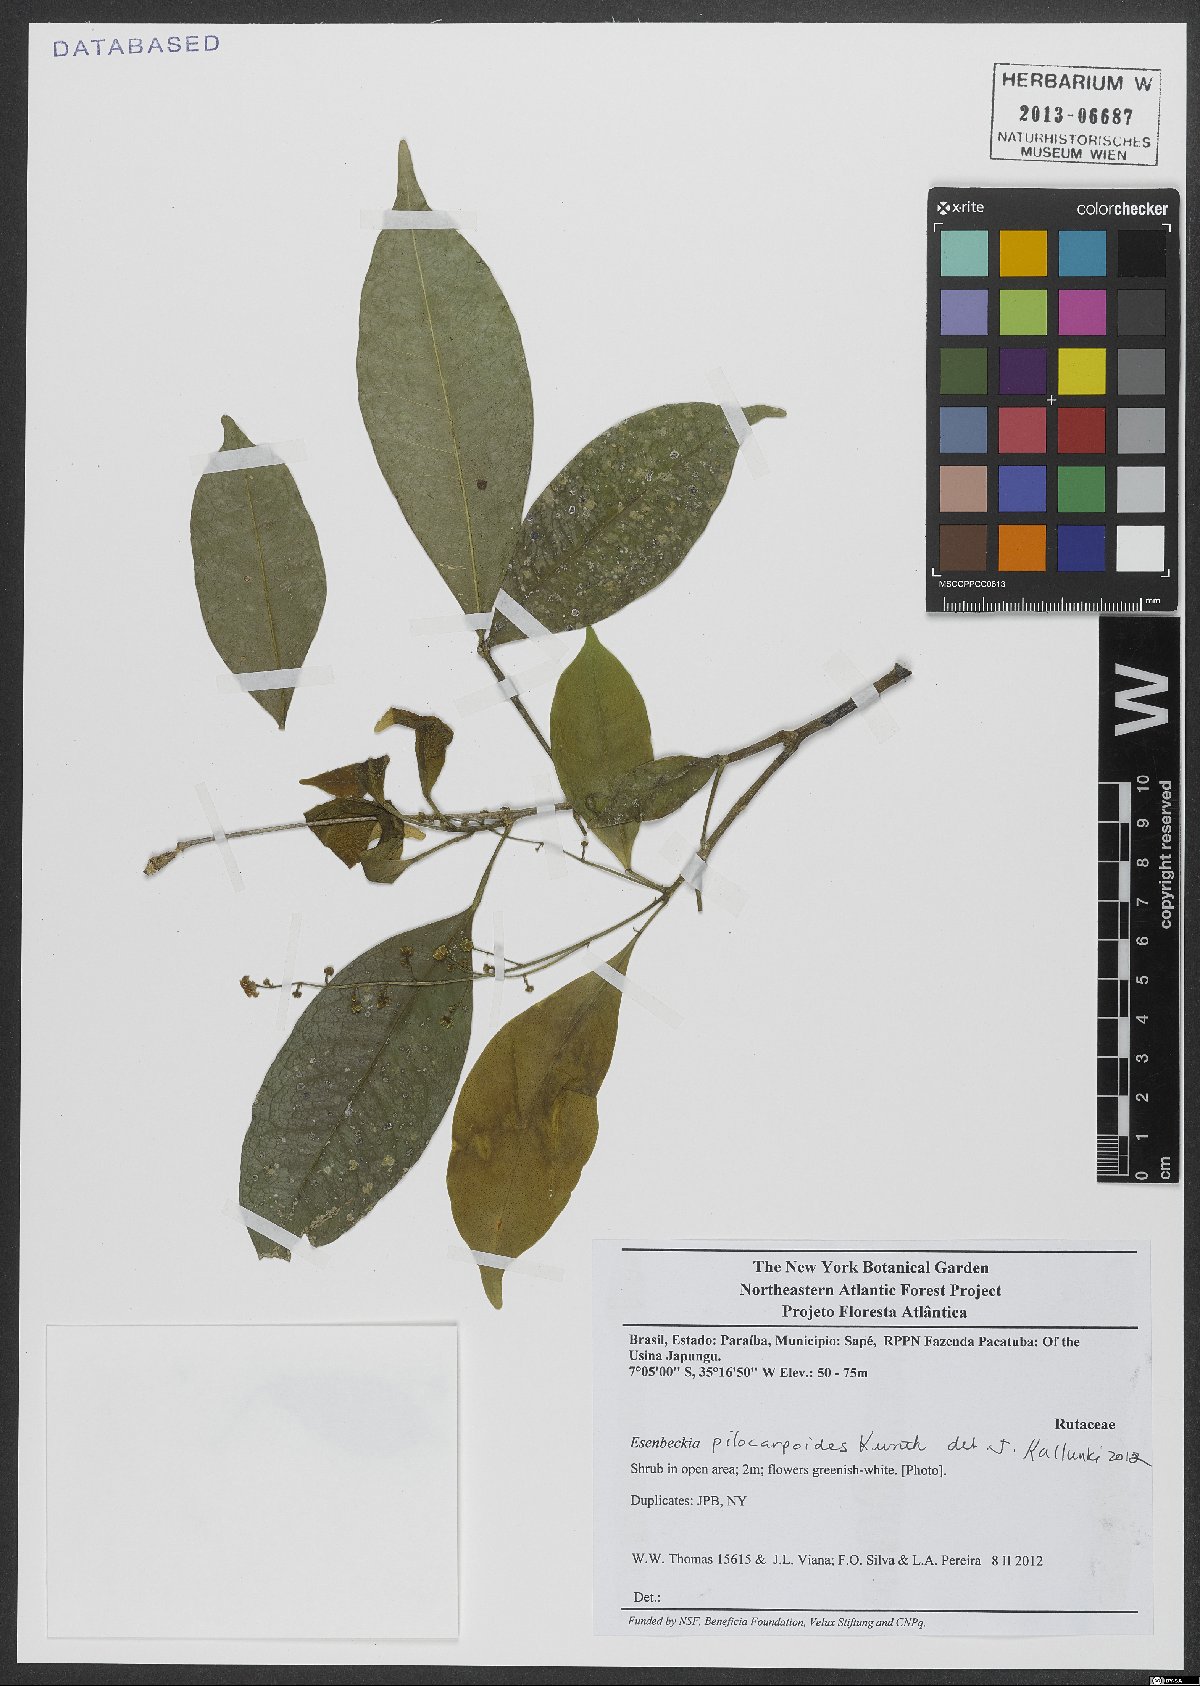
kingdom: Plantae
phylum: Tracheophyta
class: Magnoliopsida
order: Sapindales
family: Rutaceae
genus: Esenbeckia
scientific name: Esenbeckia pilocarpoides
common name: Pilosefruit esenbeckia
